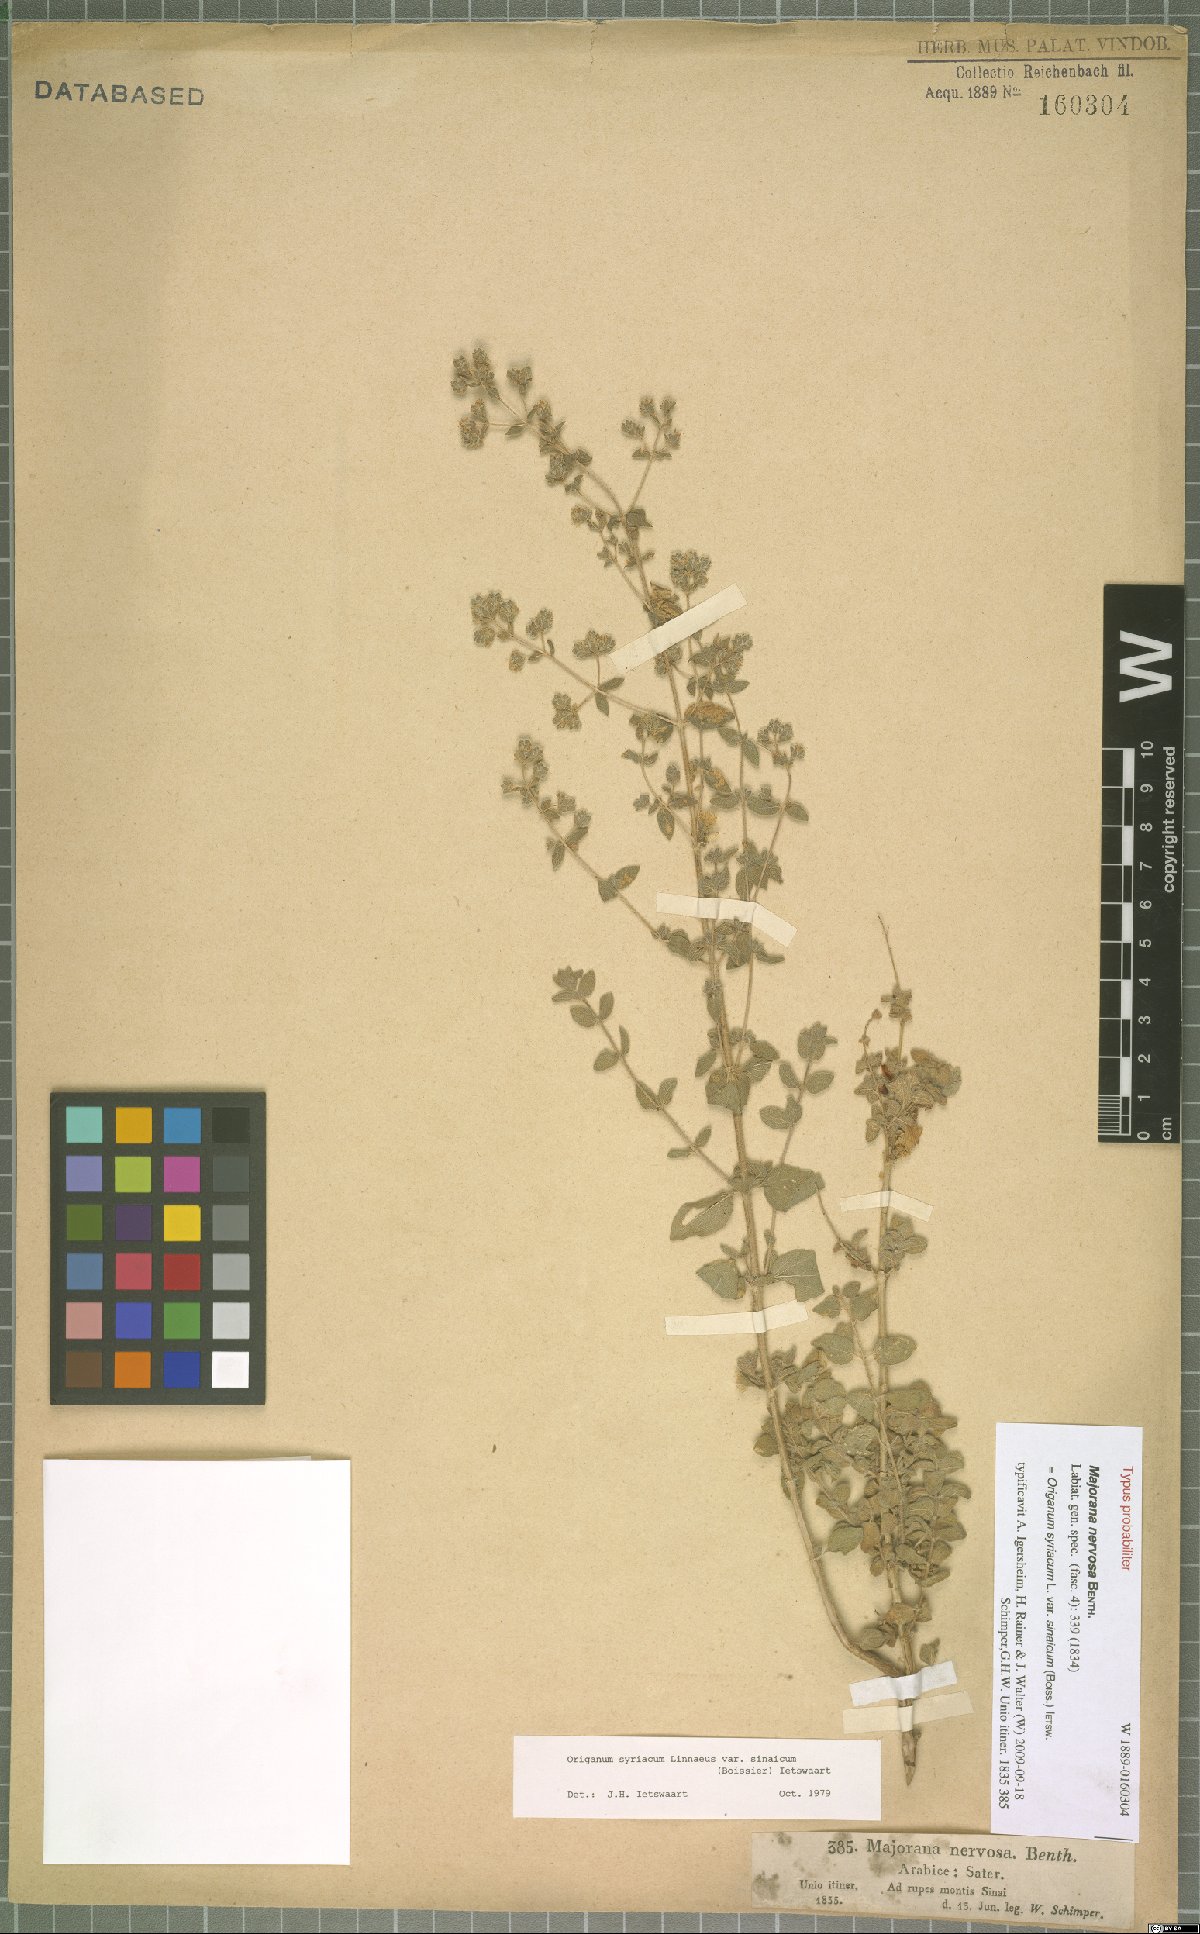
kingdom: Plantae
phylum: Tracheophyta
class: Magnoliopsida
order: Lamiales
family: Lamiaceae
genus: Origanum
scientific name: Origanum syriacum
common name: Biblical-hyssop
